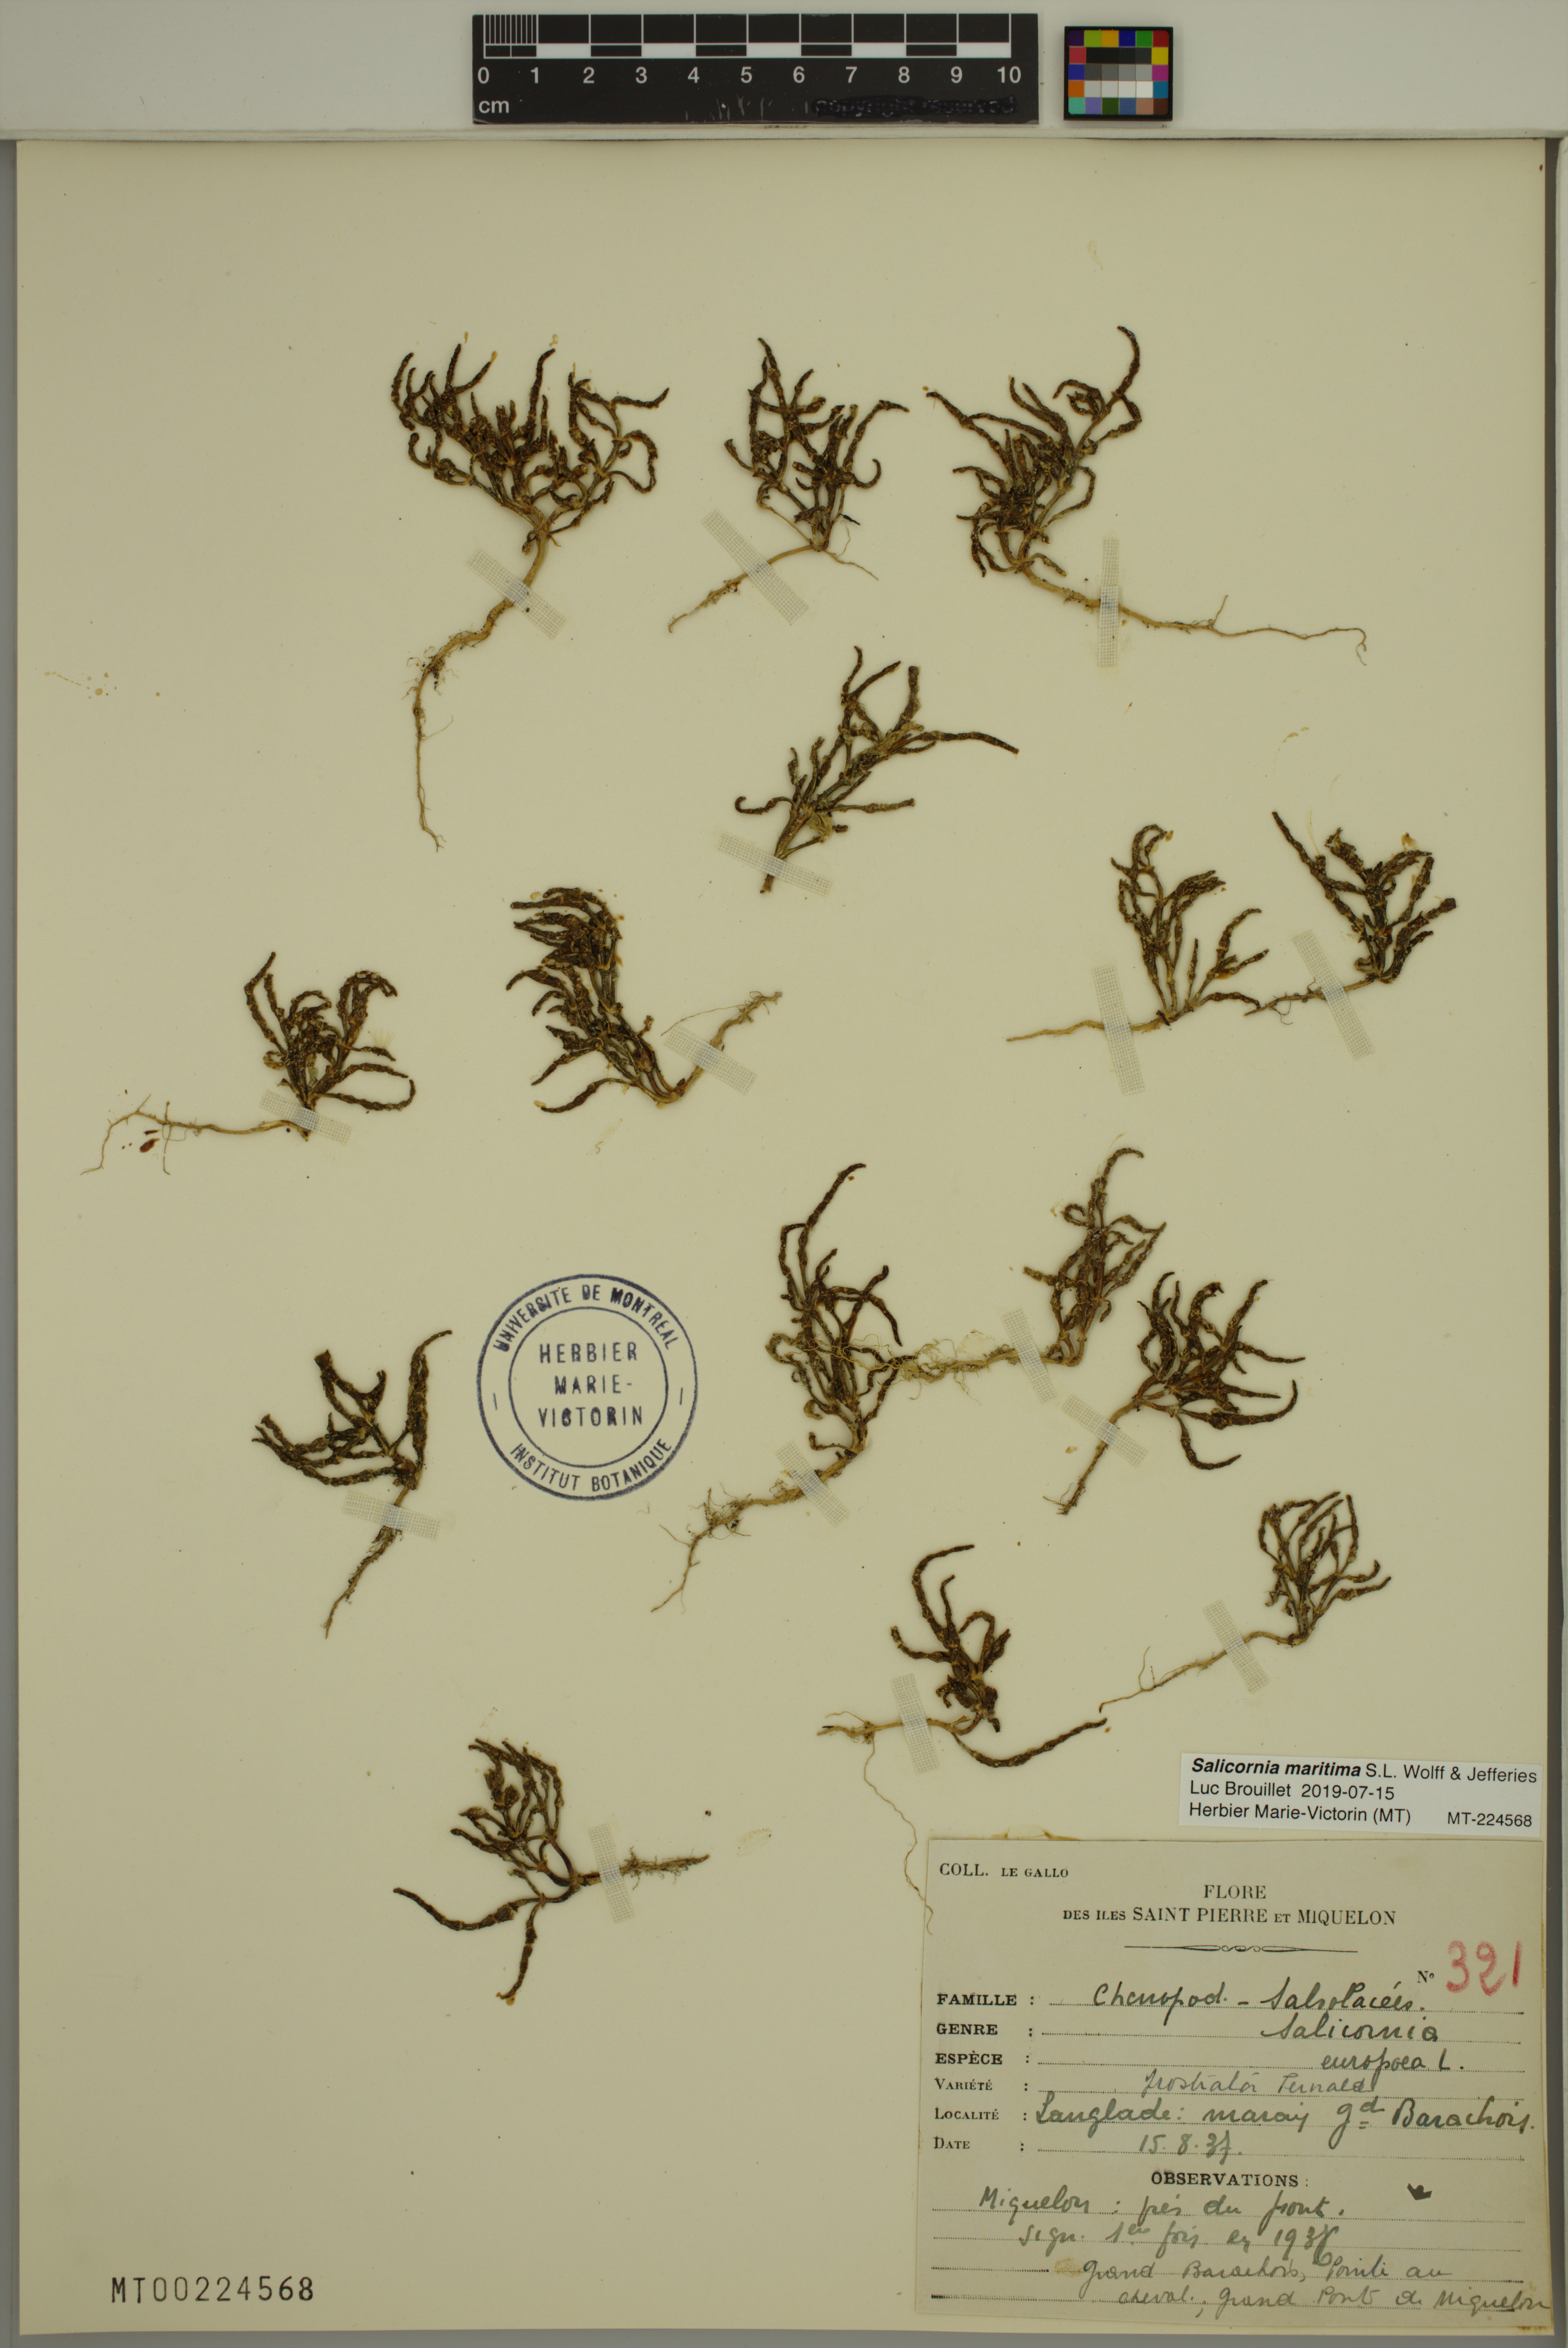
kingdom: Plantae
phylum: Tracheophyta
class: Magnoliopsida
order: Caryophyllales
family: Amaranthaceae
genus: Salicornia
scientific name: Salicornia maritima
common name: Jointed glasswort
